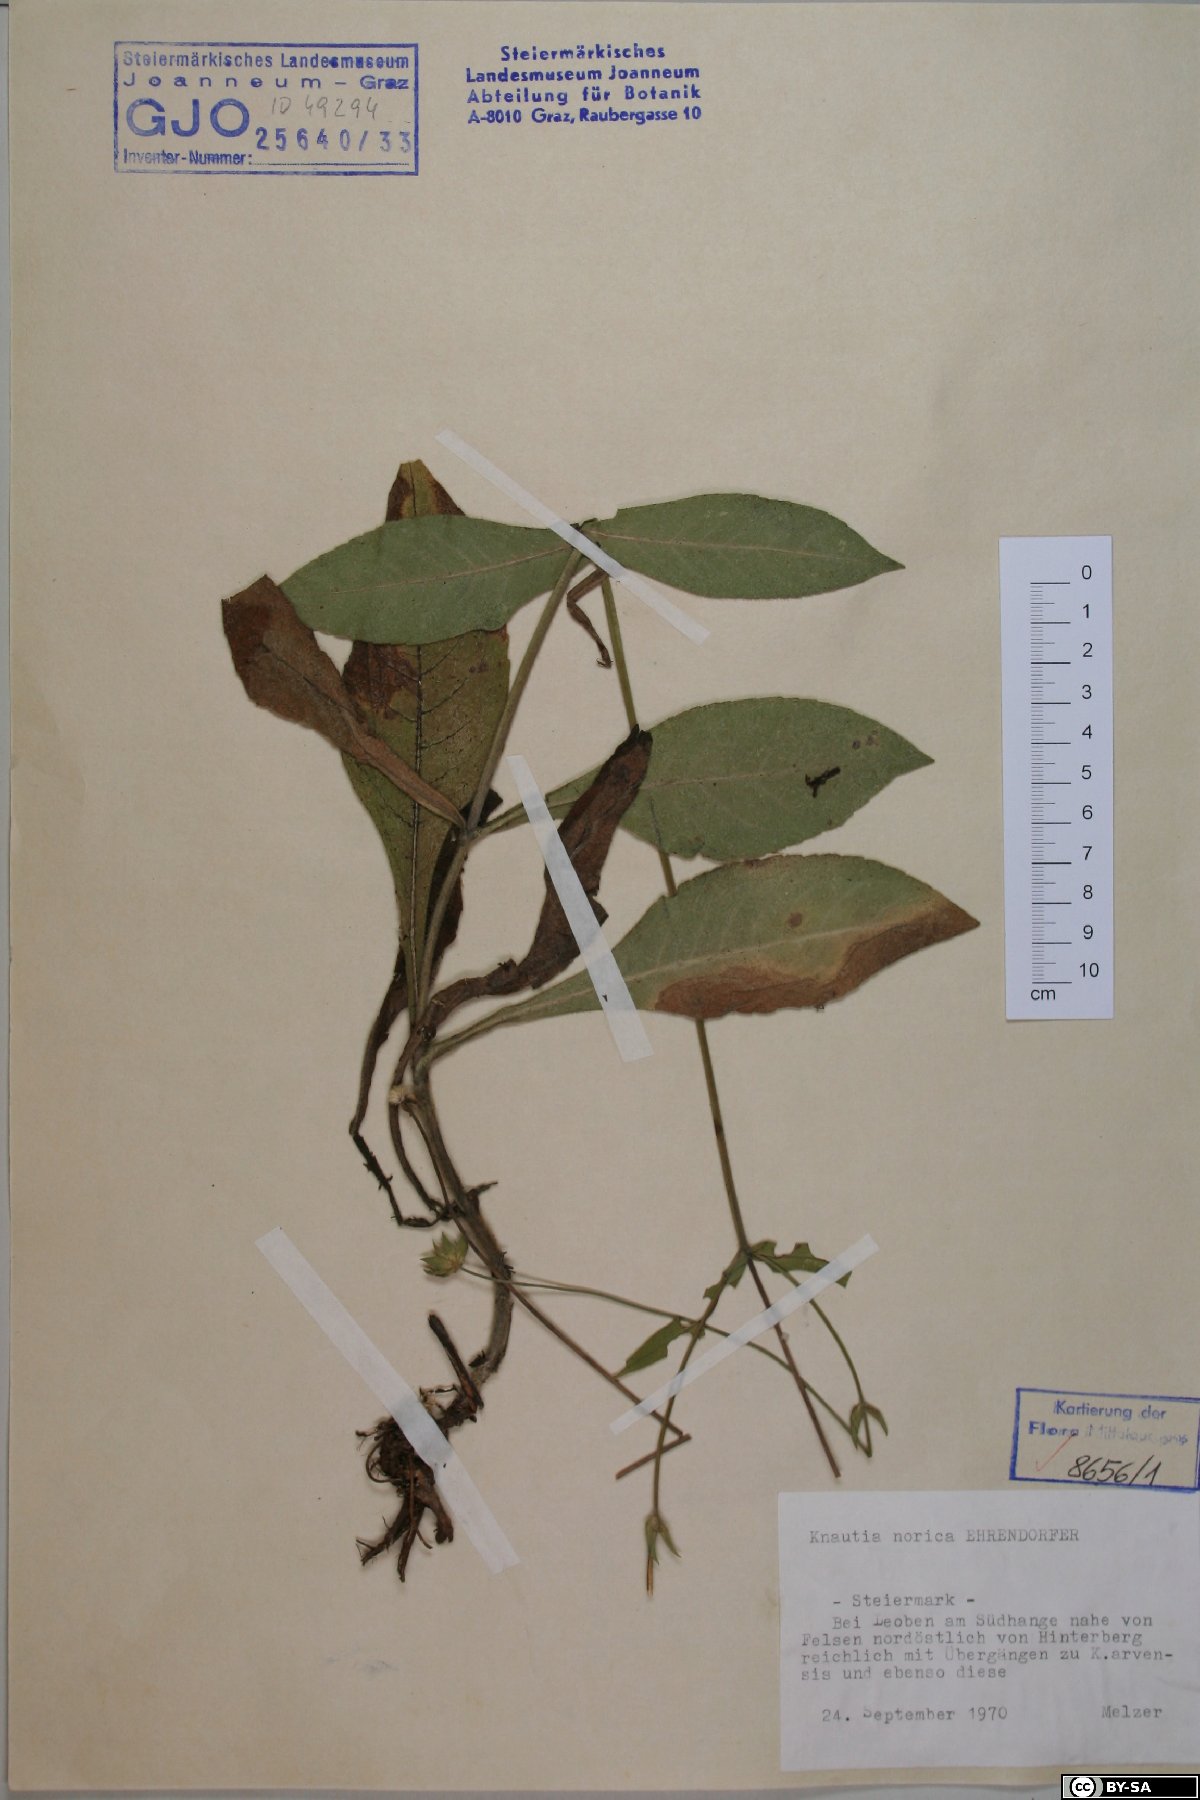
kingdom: Plantae
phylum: Tracheophyta
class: Magnoliopsida
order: Dipsacales
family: Caprifoliaceae
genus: Knautia
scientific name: Knautia norica
